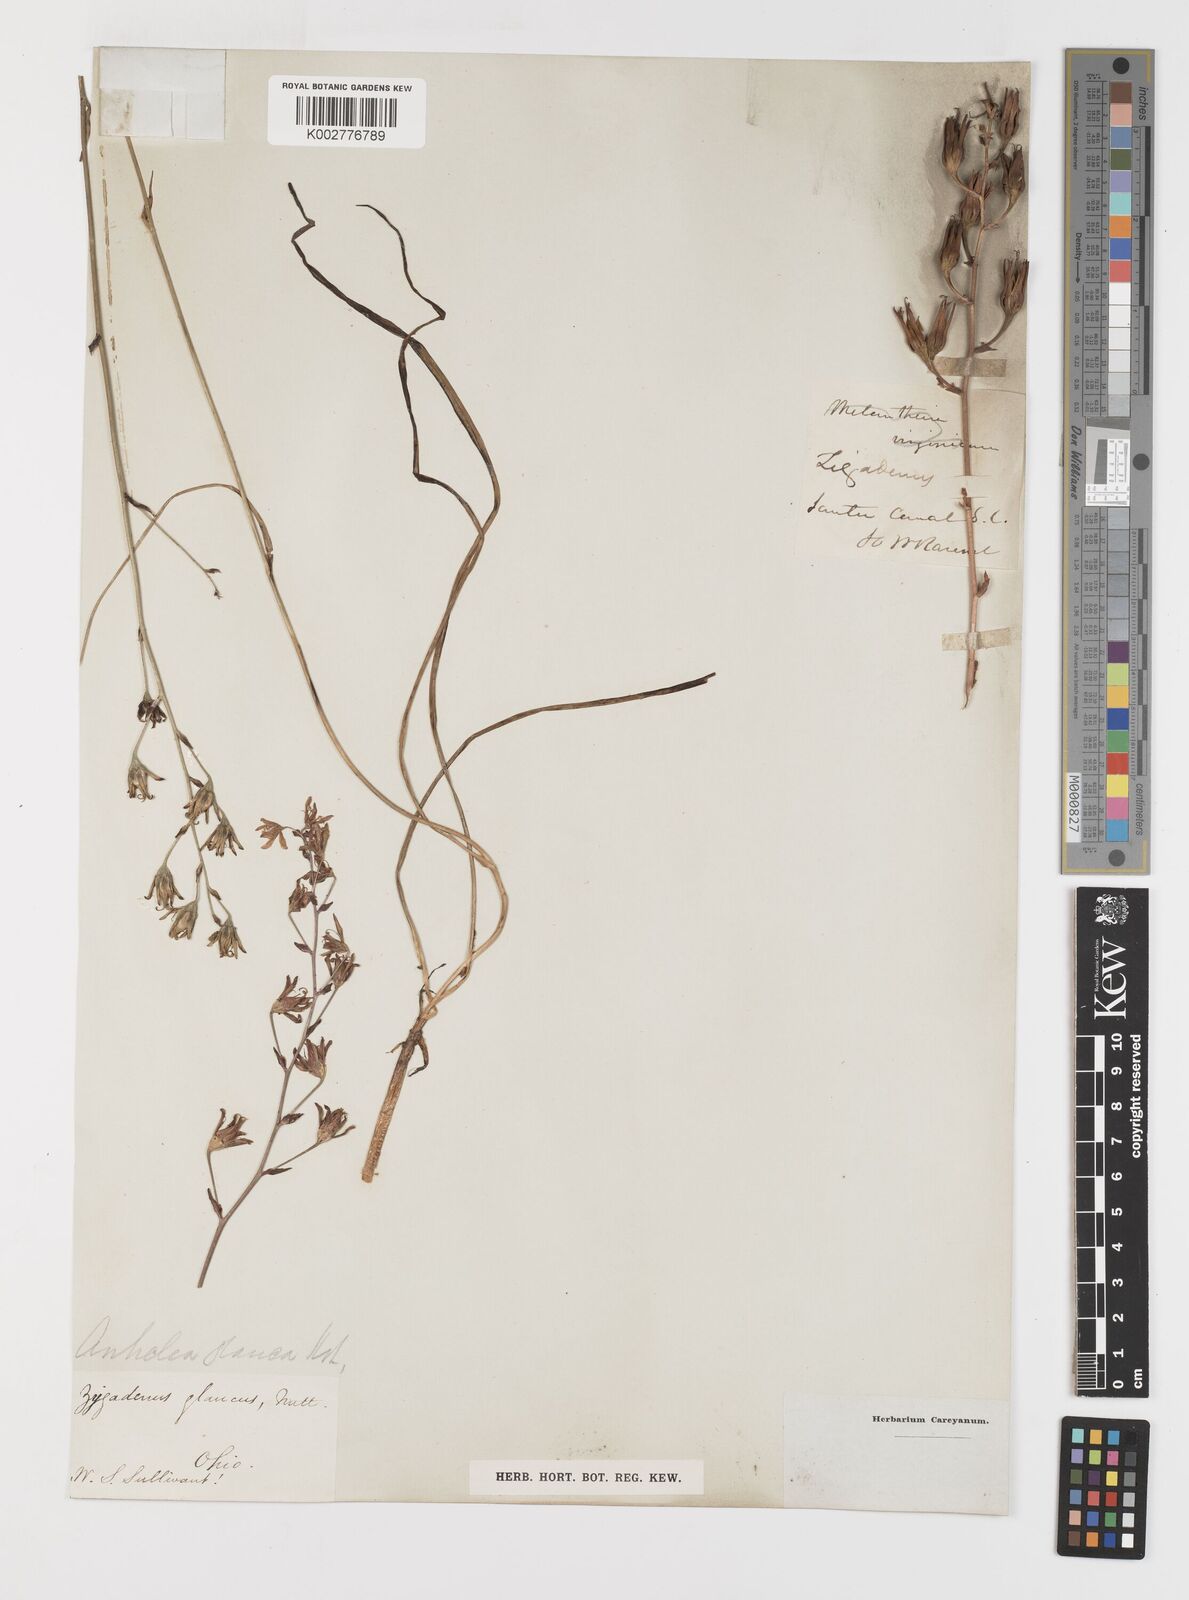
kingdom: Plantae
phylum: Tracheophyta
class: Liliopsida
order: Liliales
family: Melanthiaceae
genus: Anticlea
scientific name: Anticlea elegans
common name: Mountain death camas
